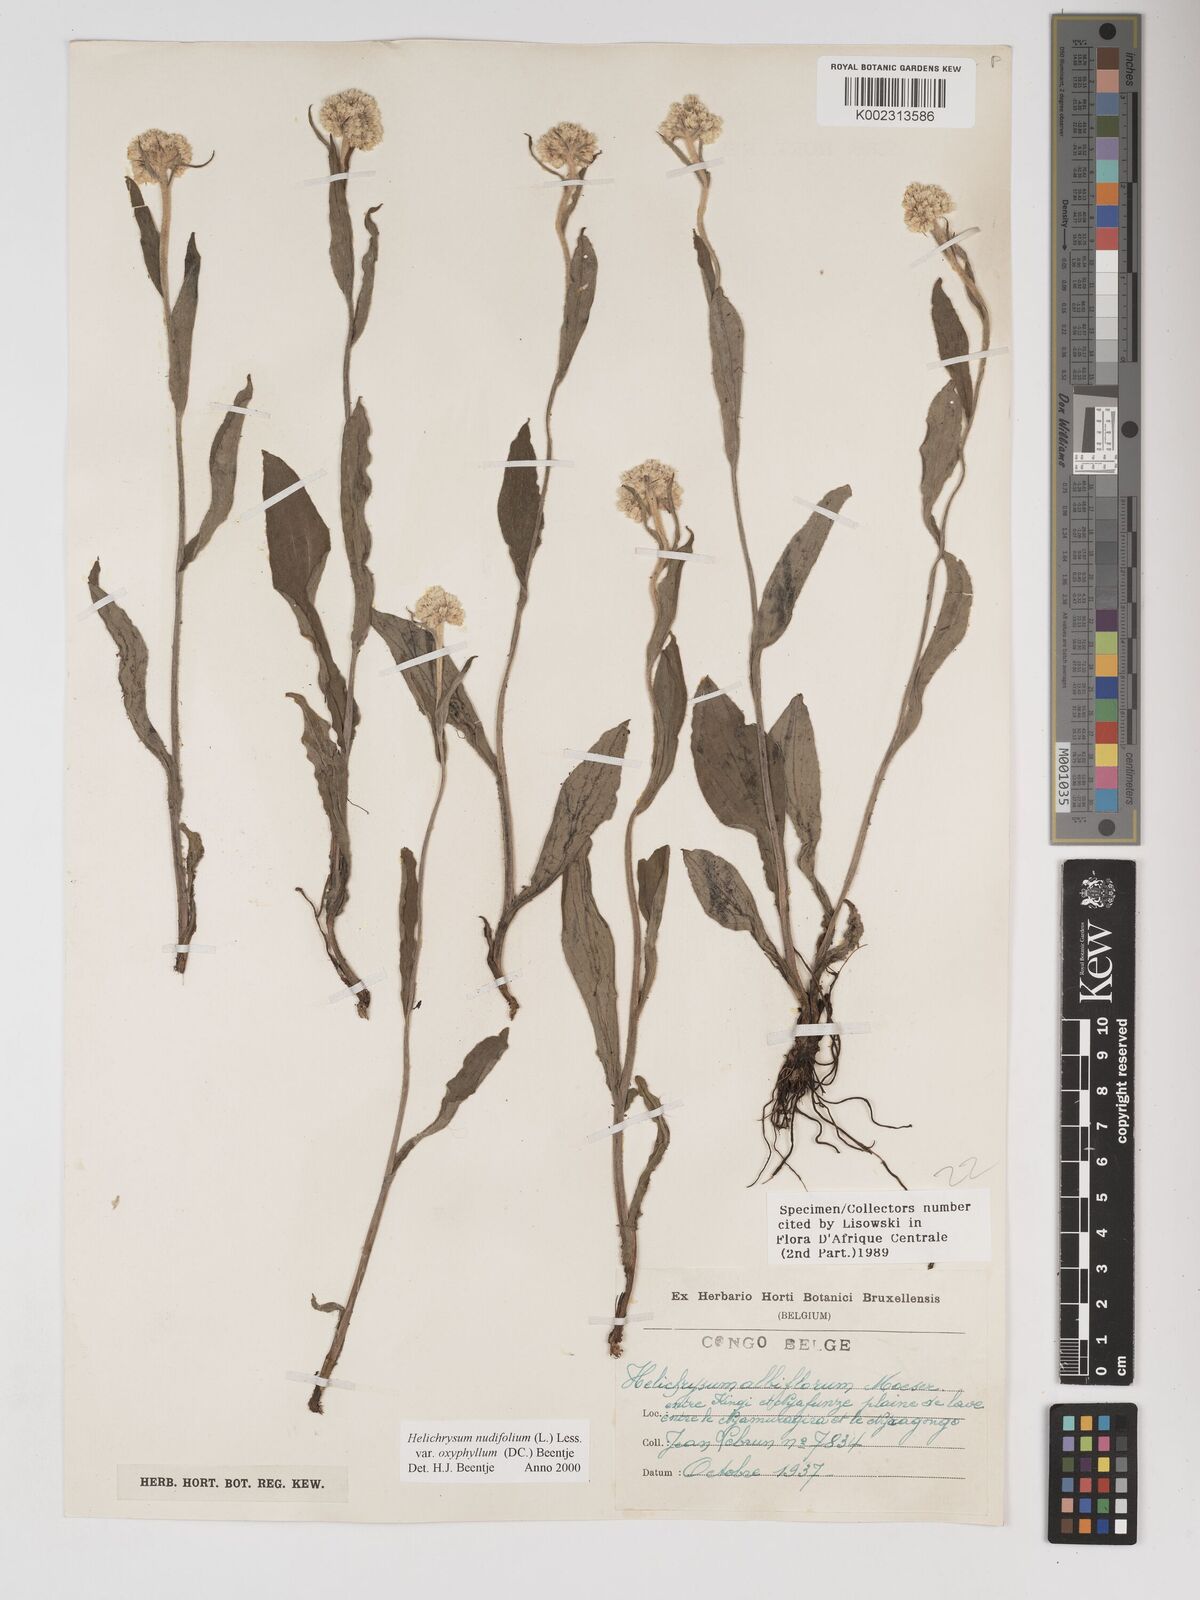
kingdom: Plantae
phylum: Tracheophyta
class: Magnoliopsida
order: Asterales
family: Asteraceae
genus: Helichrysum
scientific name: Helichrysum nudifolium
